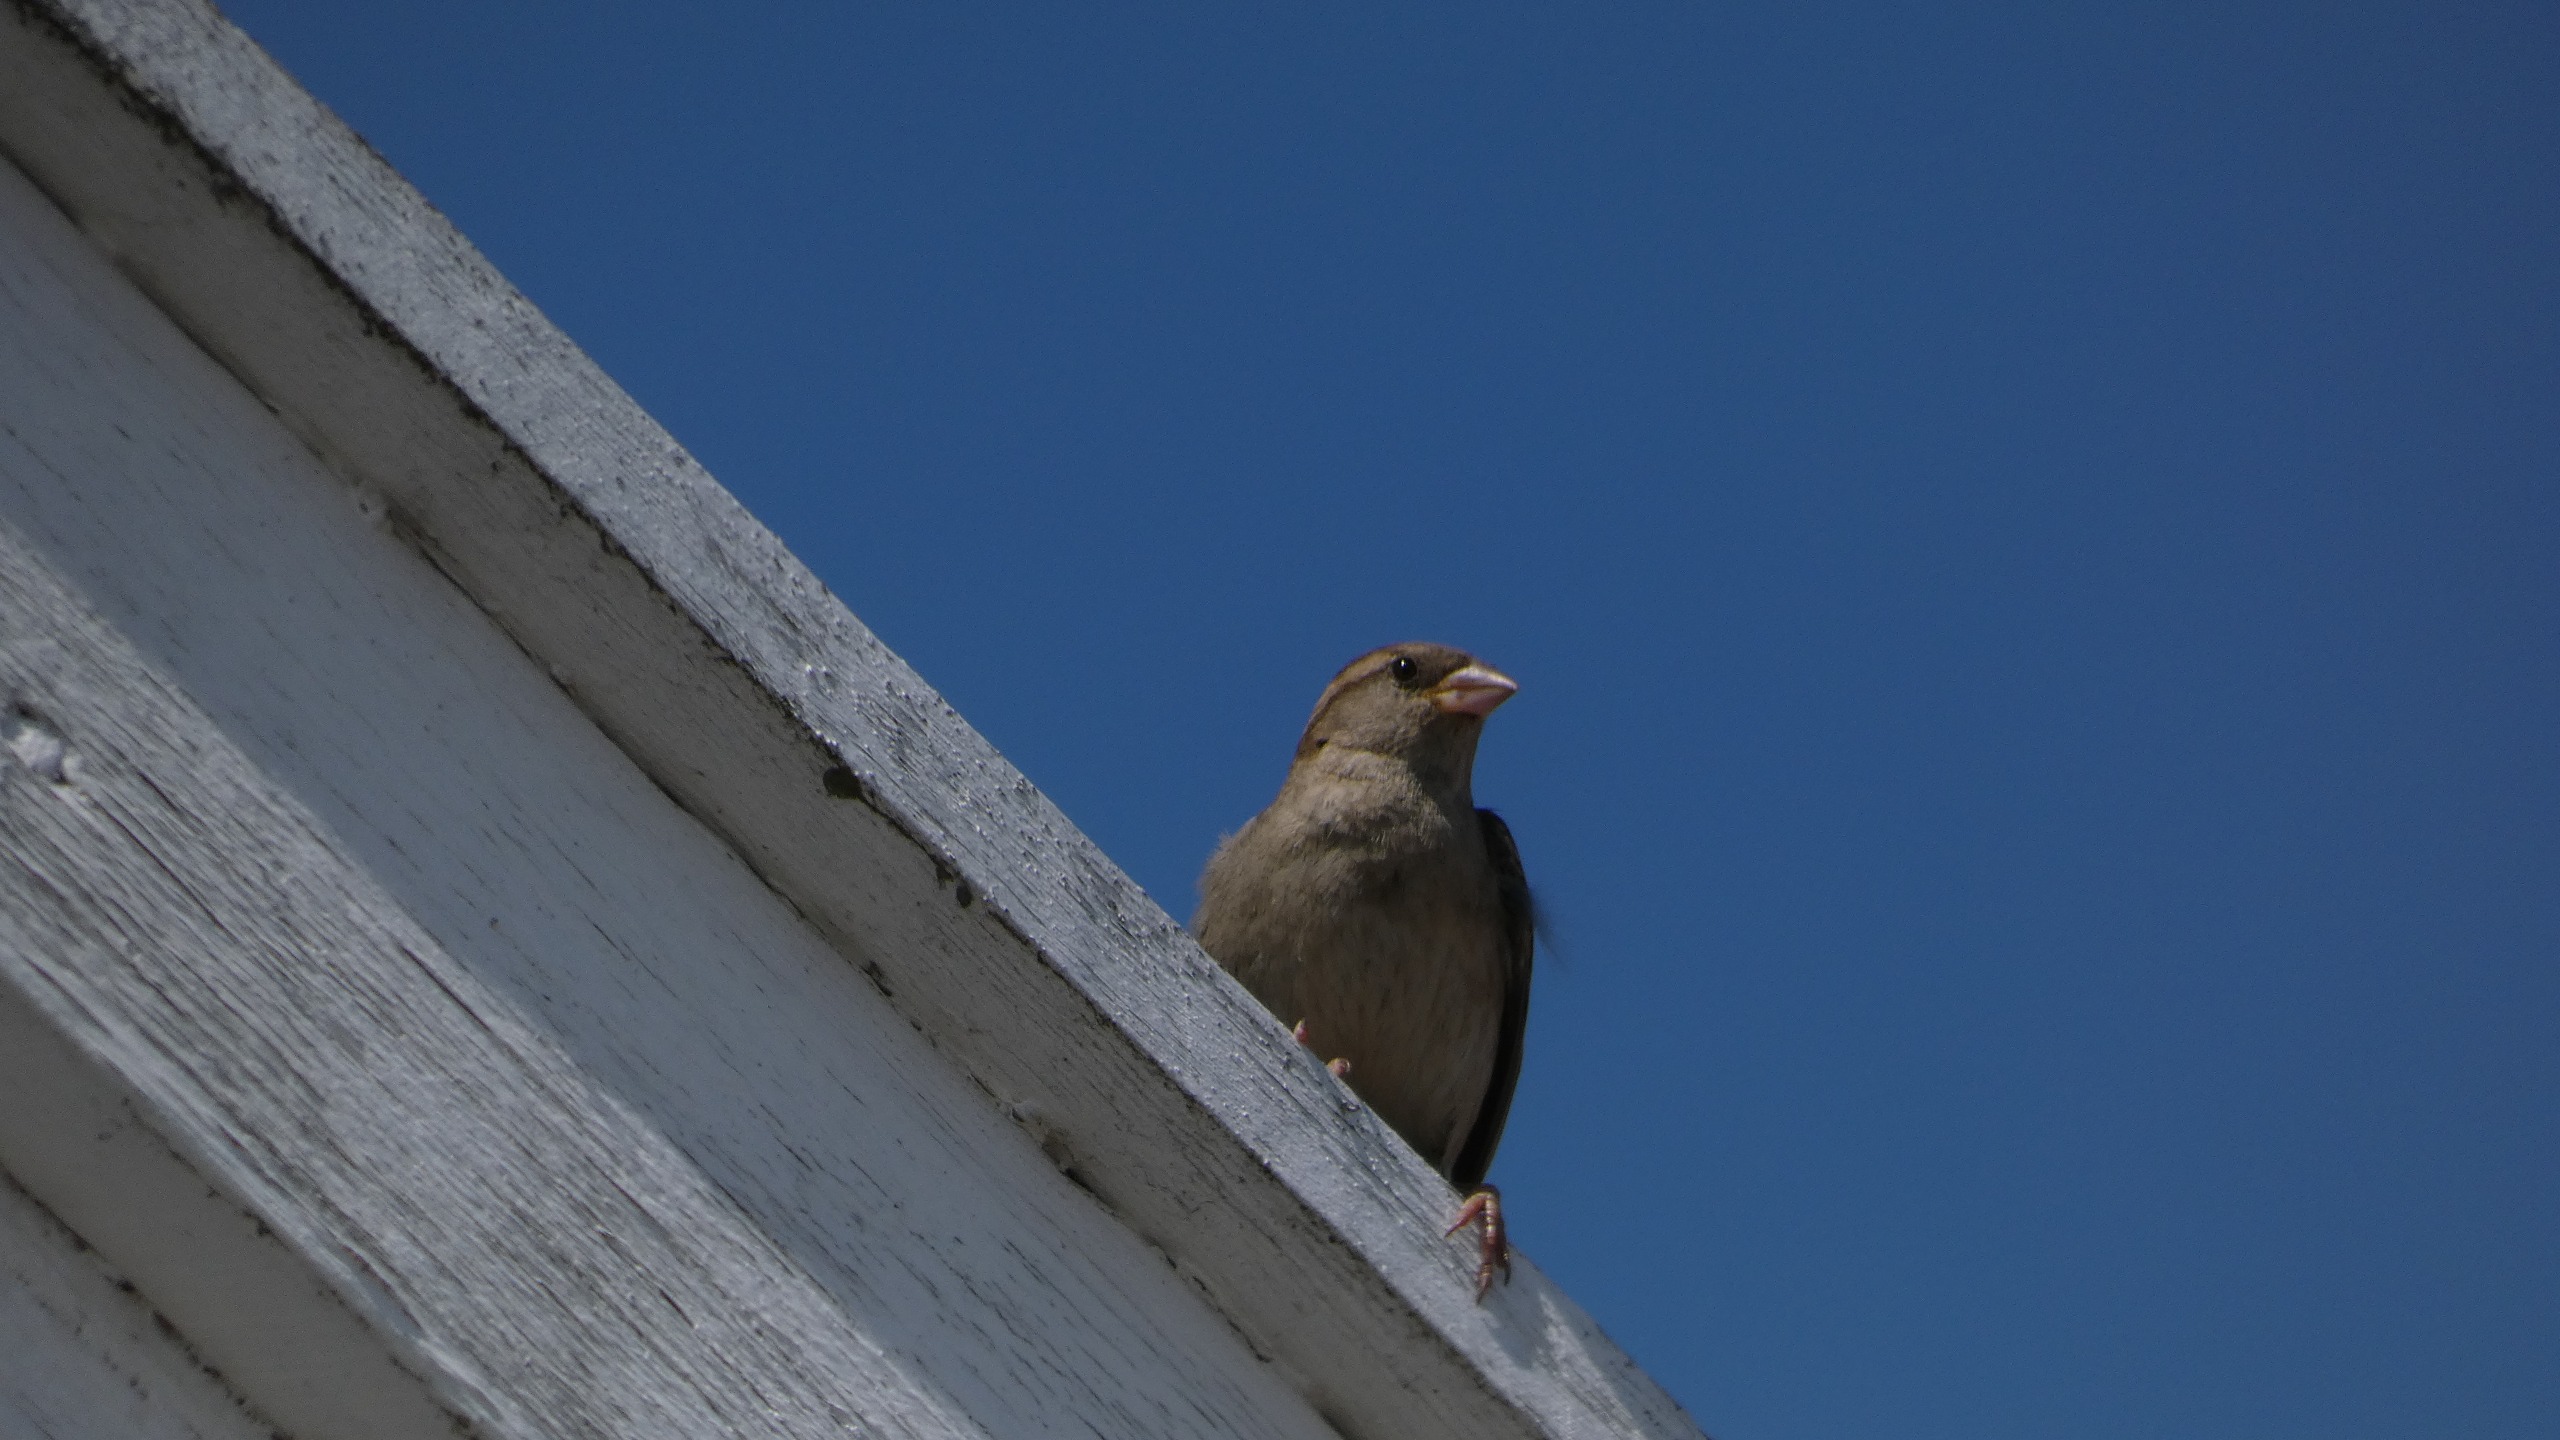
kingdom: Animalia
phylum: Chordata
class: Aves
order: Passeriformes
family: Passeridae
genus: Passer
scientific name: Passer domesticus
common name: Gråspurv
